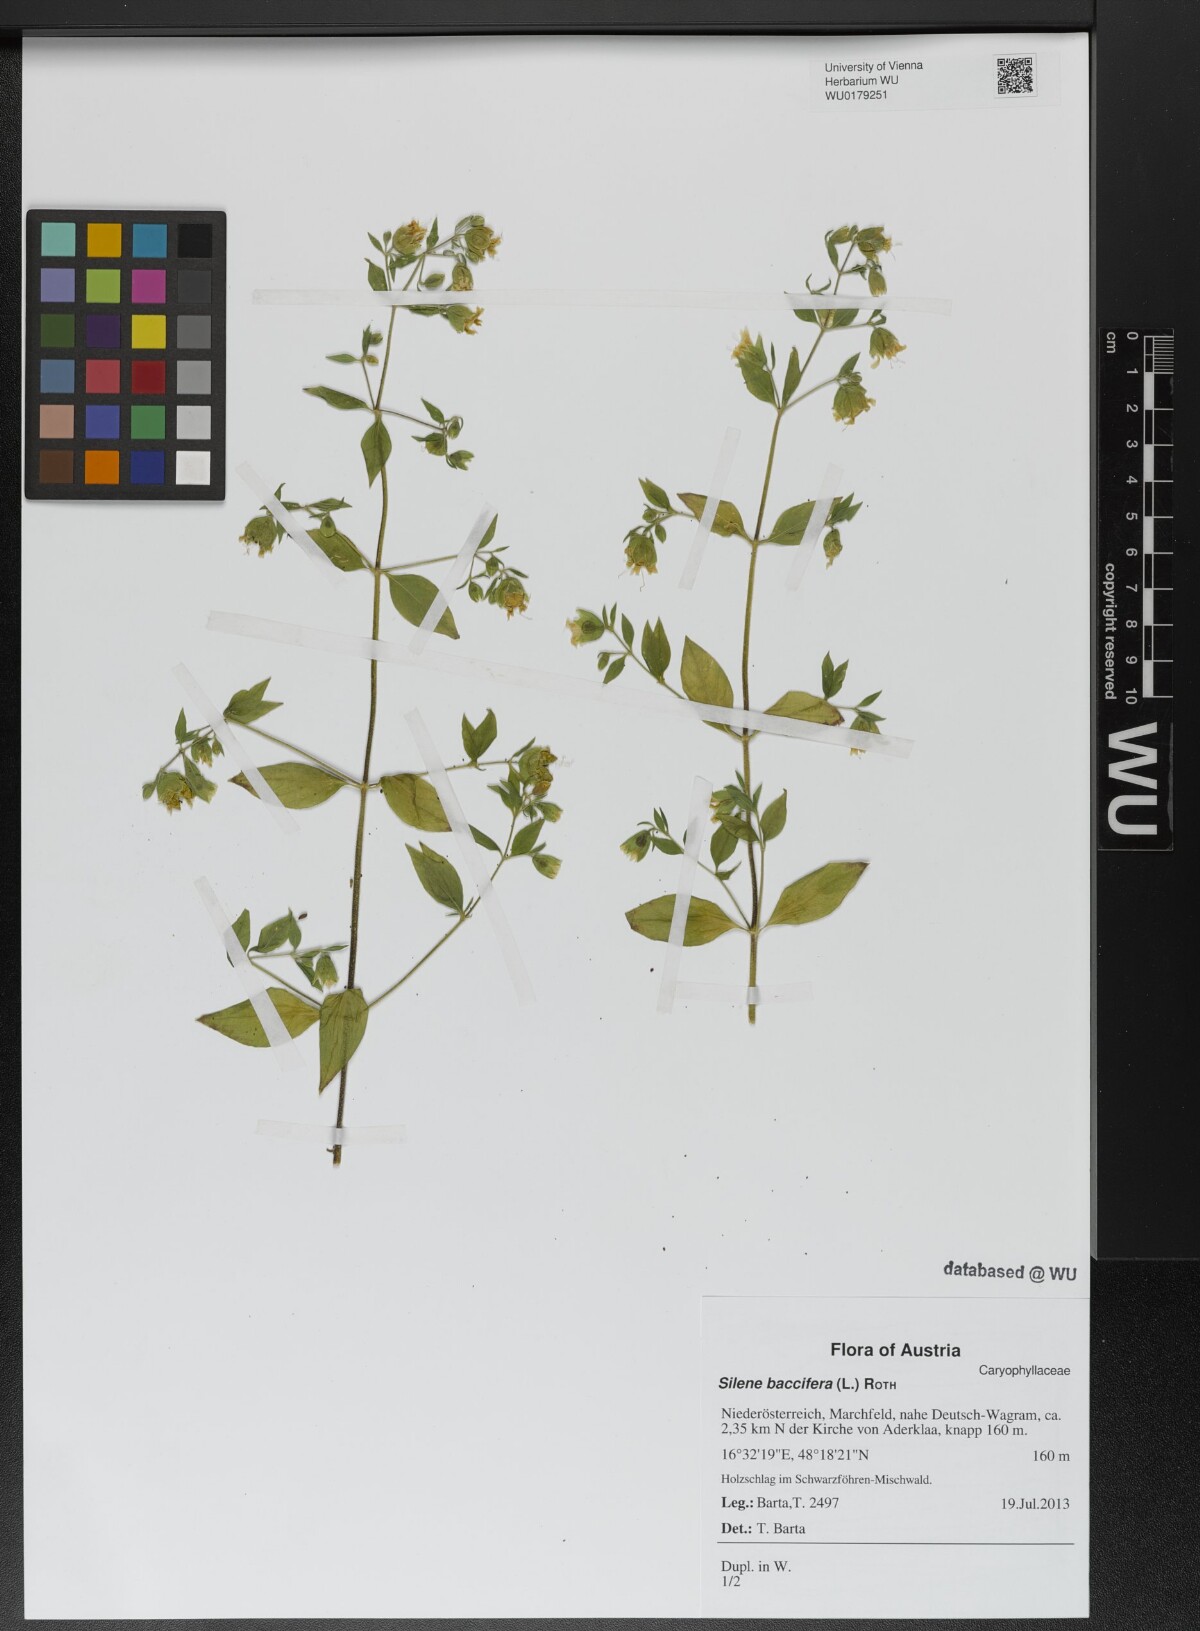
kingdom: Plantae
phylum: Tracheophyta
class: Magnoliopsida
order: Caryophyllales
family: Caryophyllaceae
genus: Silene
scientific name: Silene baccifera
